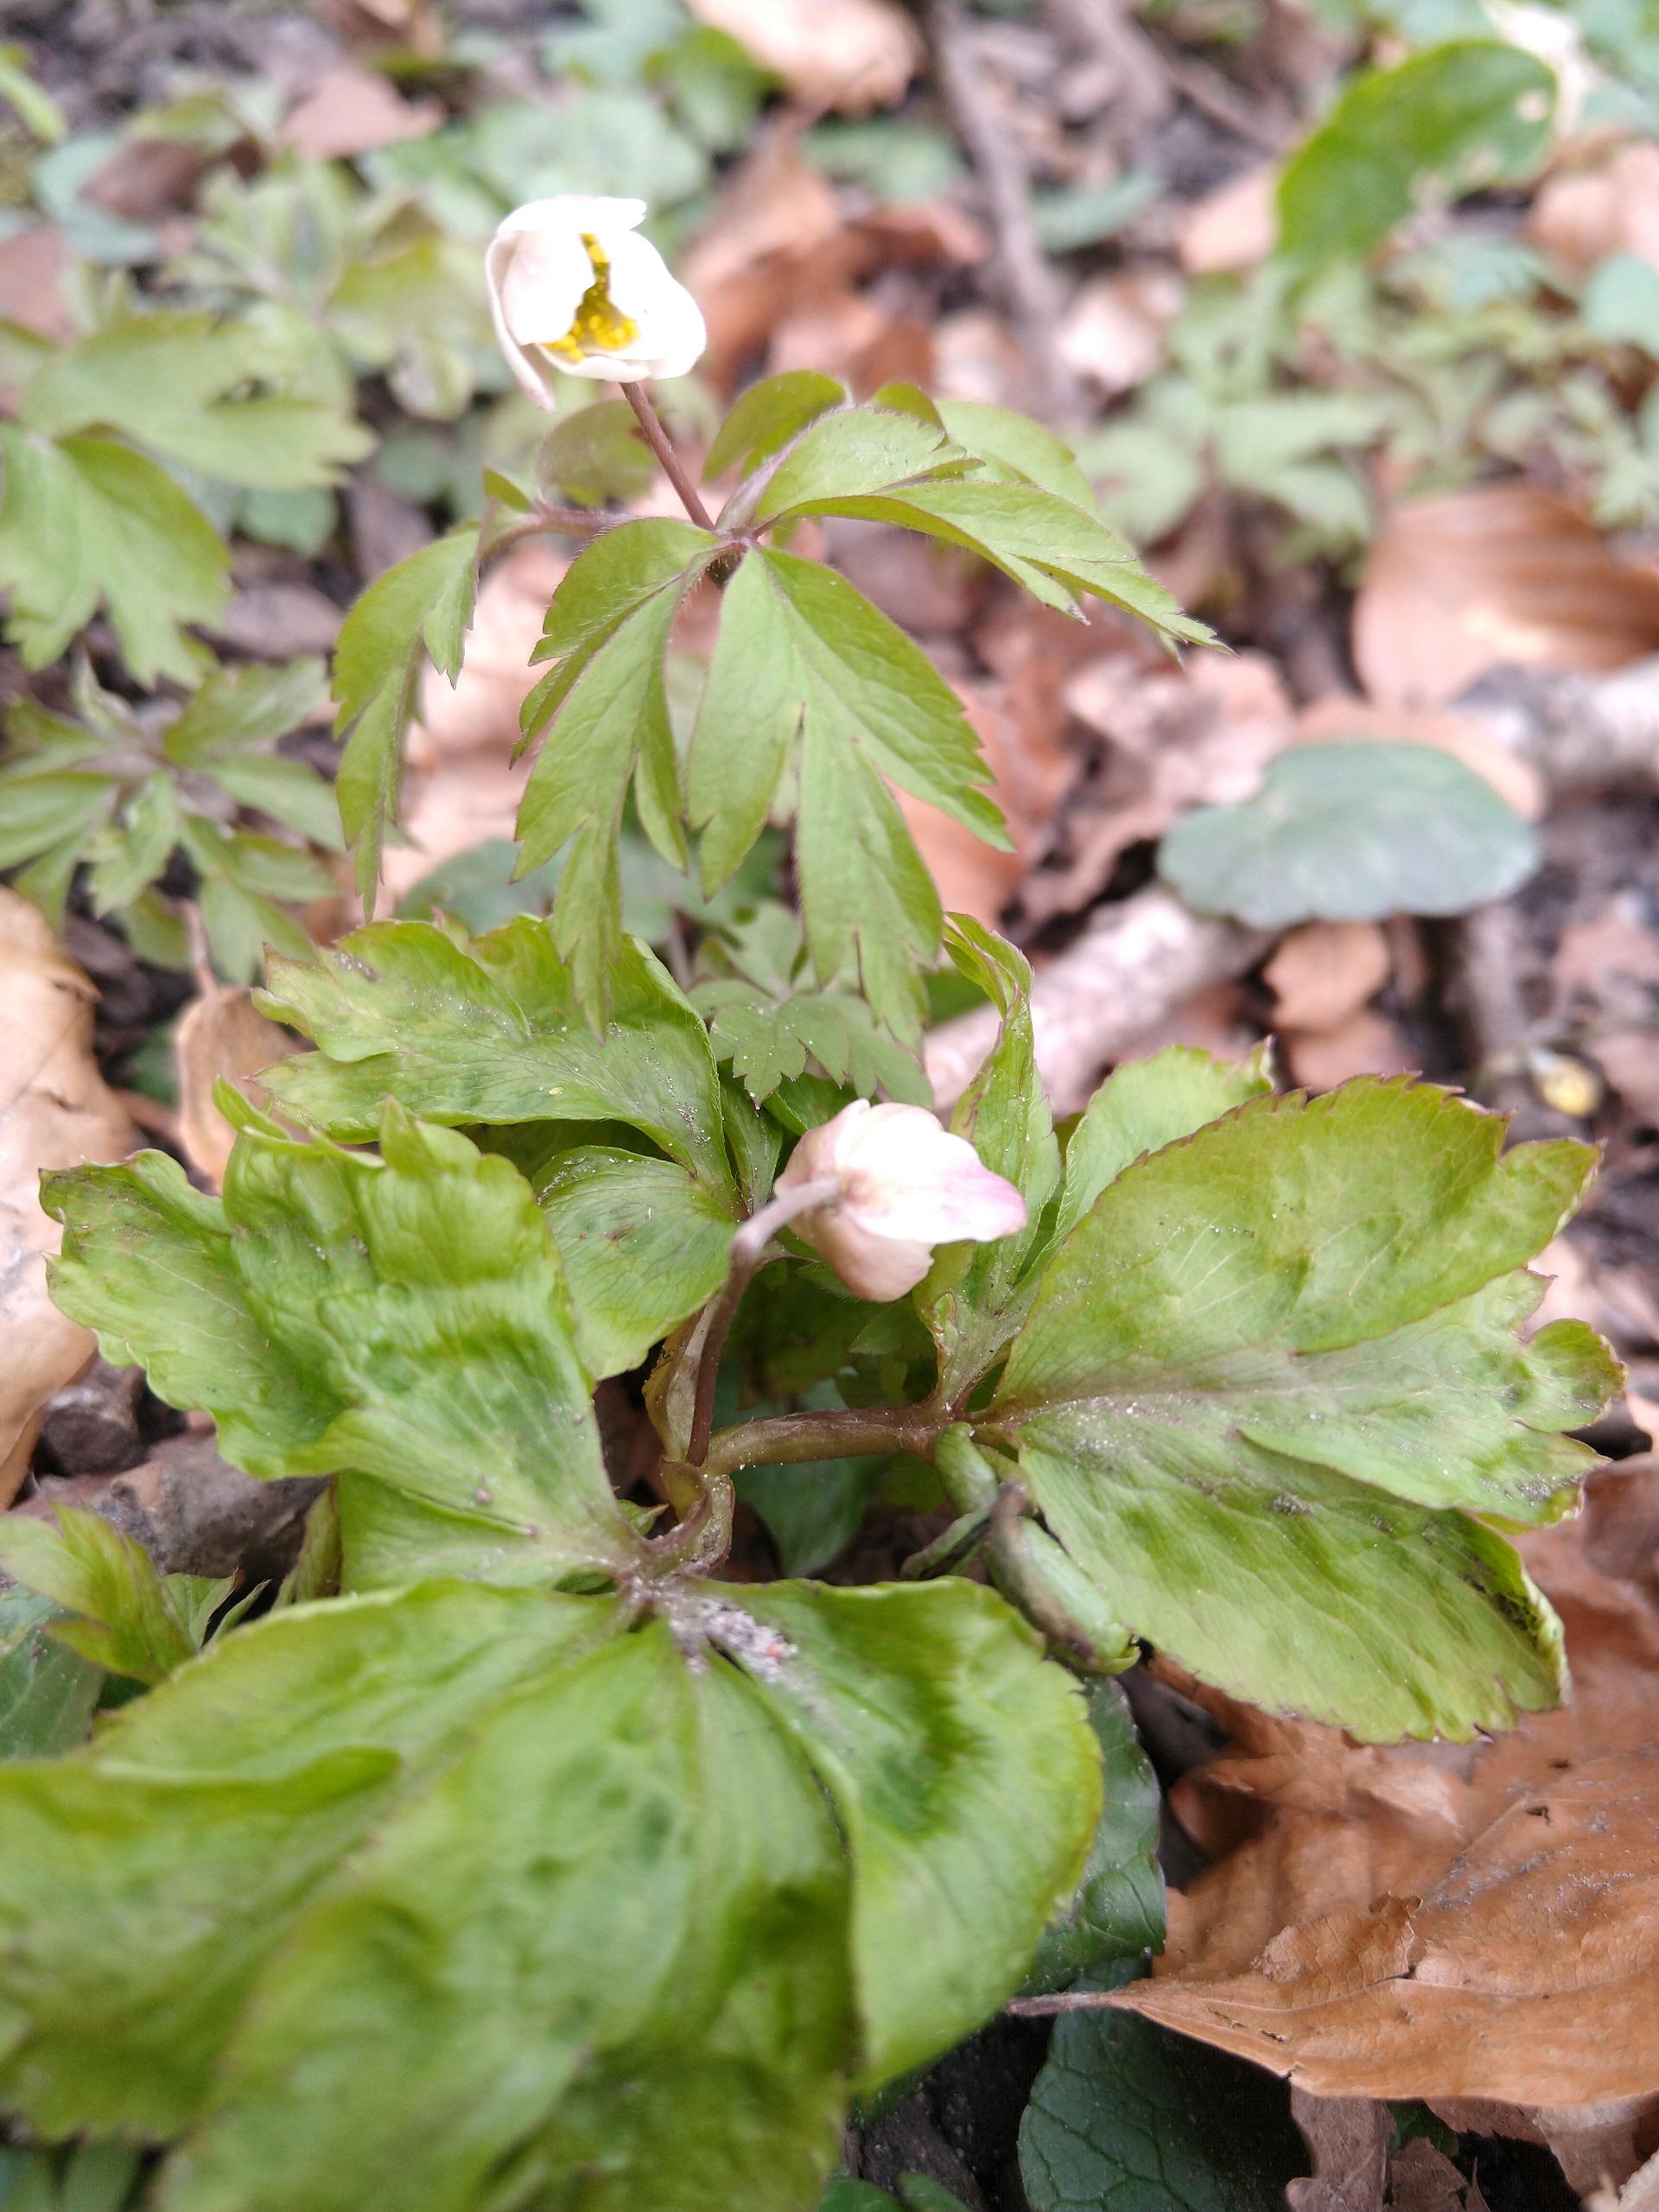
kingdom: Plantae
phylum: Tracheophyta
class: Magnoliopsida
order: Ranunculales
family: Ranunculaceae
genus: Anemone
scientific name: Anemone nemorosa
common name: Hvid anemone
